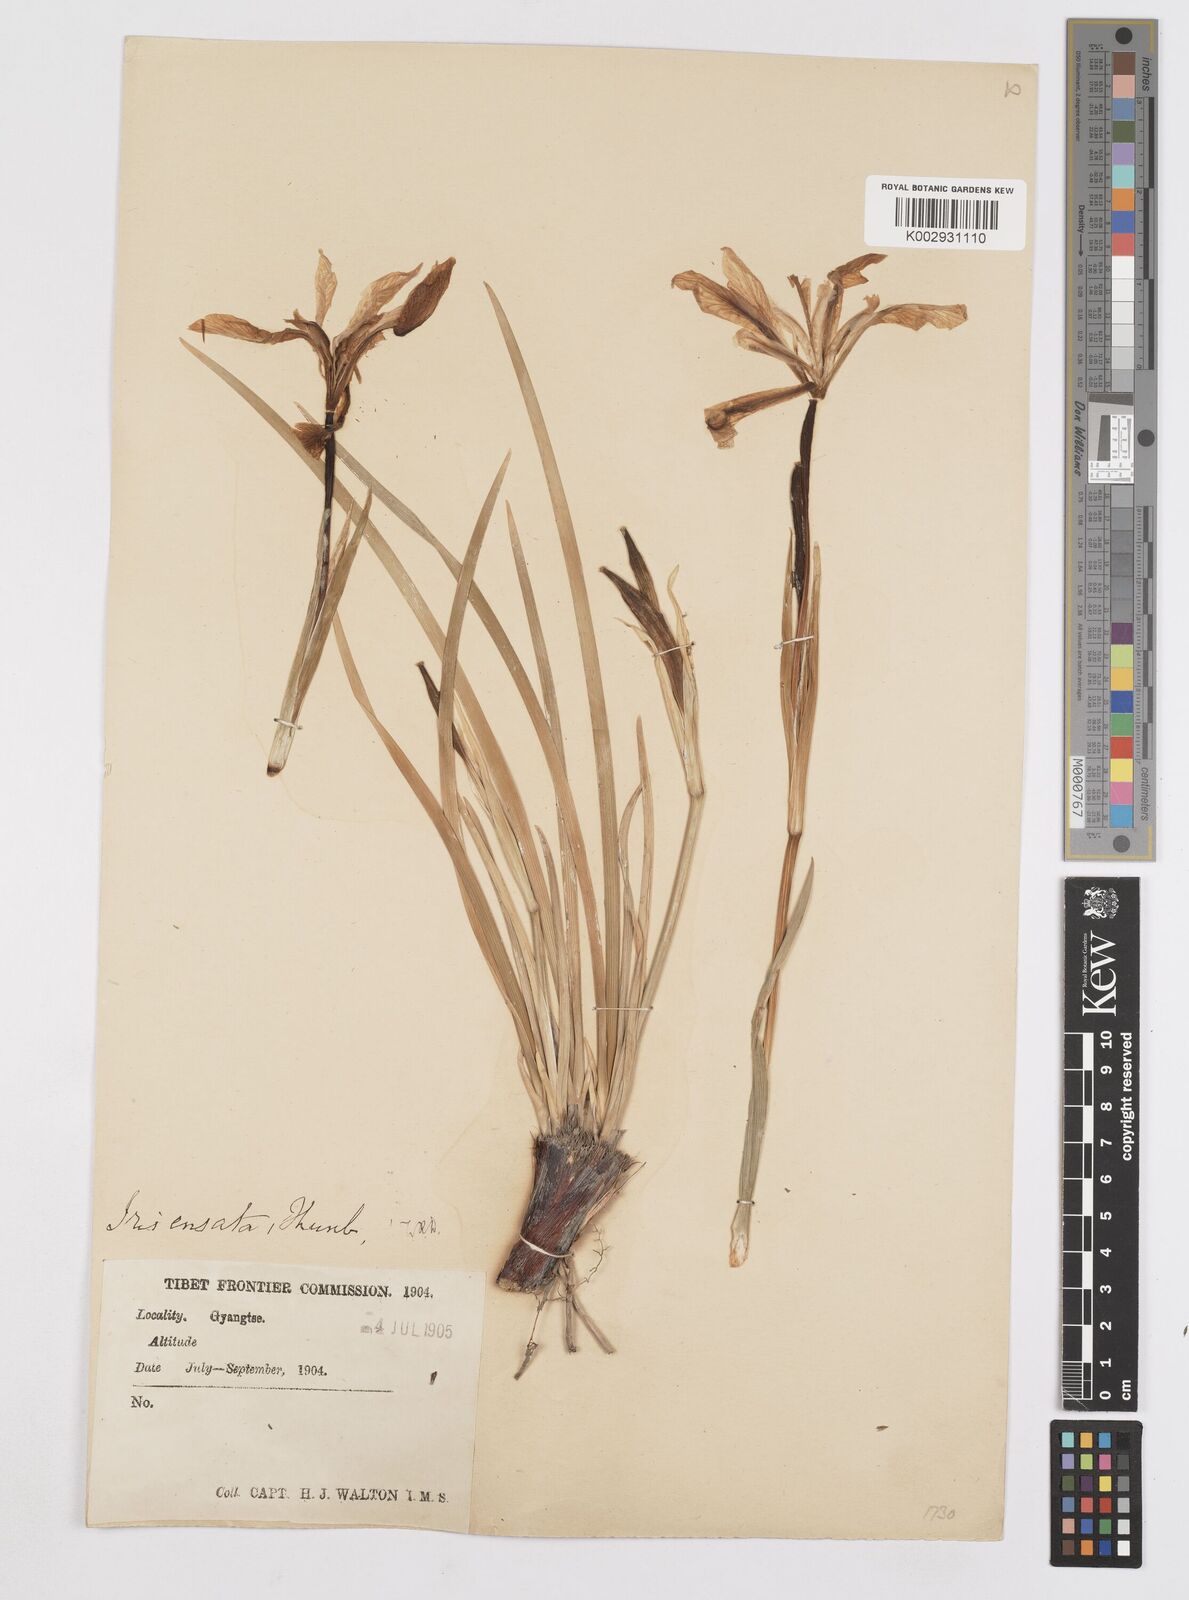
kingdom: Plantae
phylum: Tracheophyta
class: Liliopsida
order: Asparagales
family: Iridaceae
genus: Iris
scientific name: Iris ensata
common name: Beaked iris
